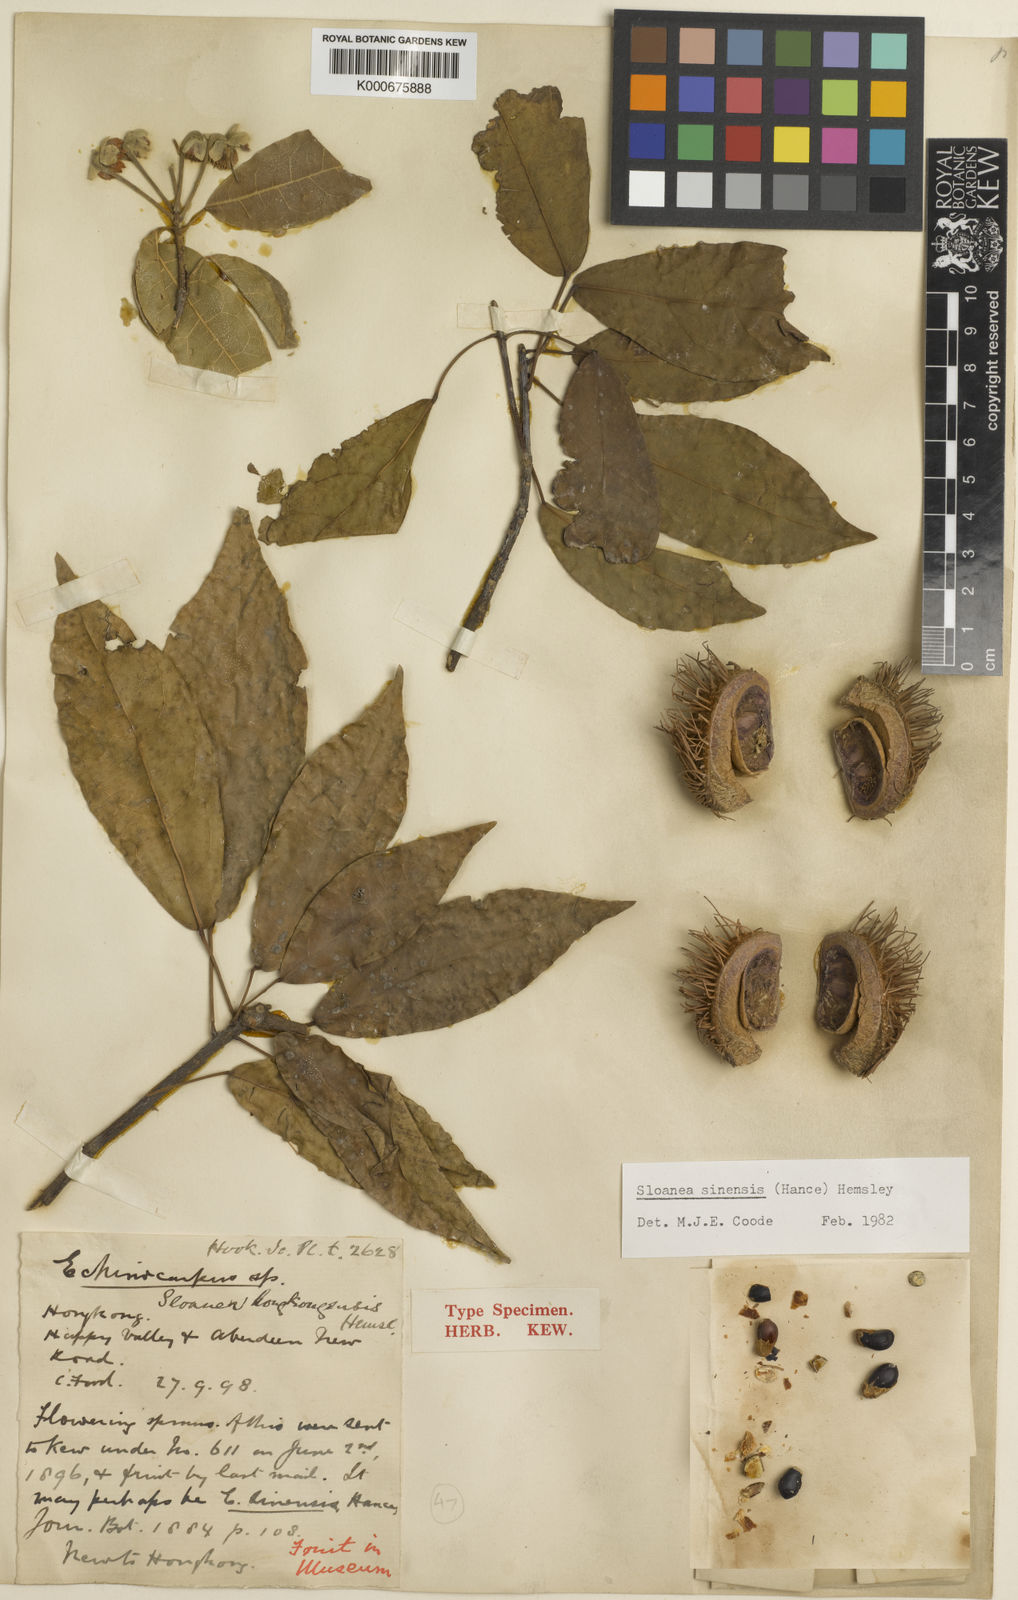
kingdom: Plantae
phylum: Tracheophyta
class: Magnoliopsida
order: Oxalidales
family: Elaeocarpaceae
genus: Sloanea
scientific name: Sloanea sinensis
